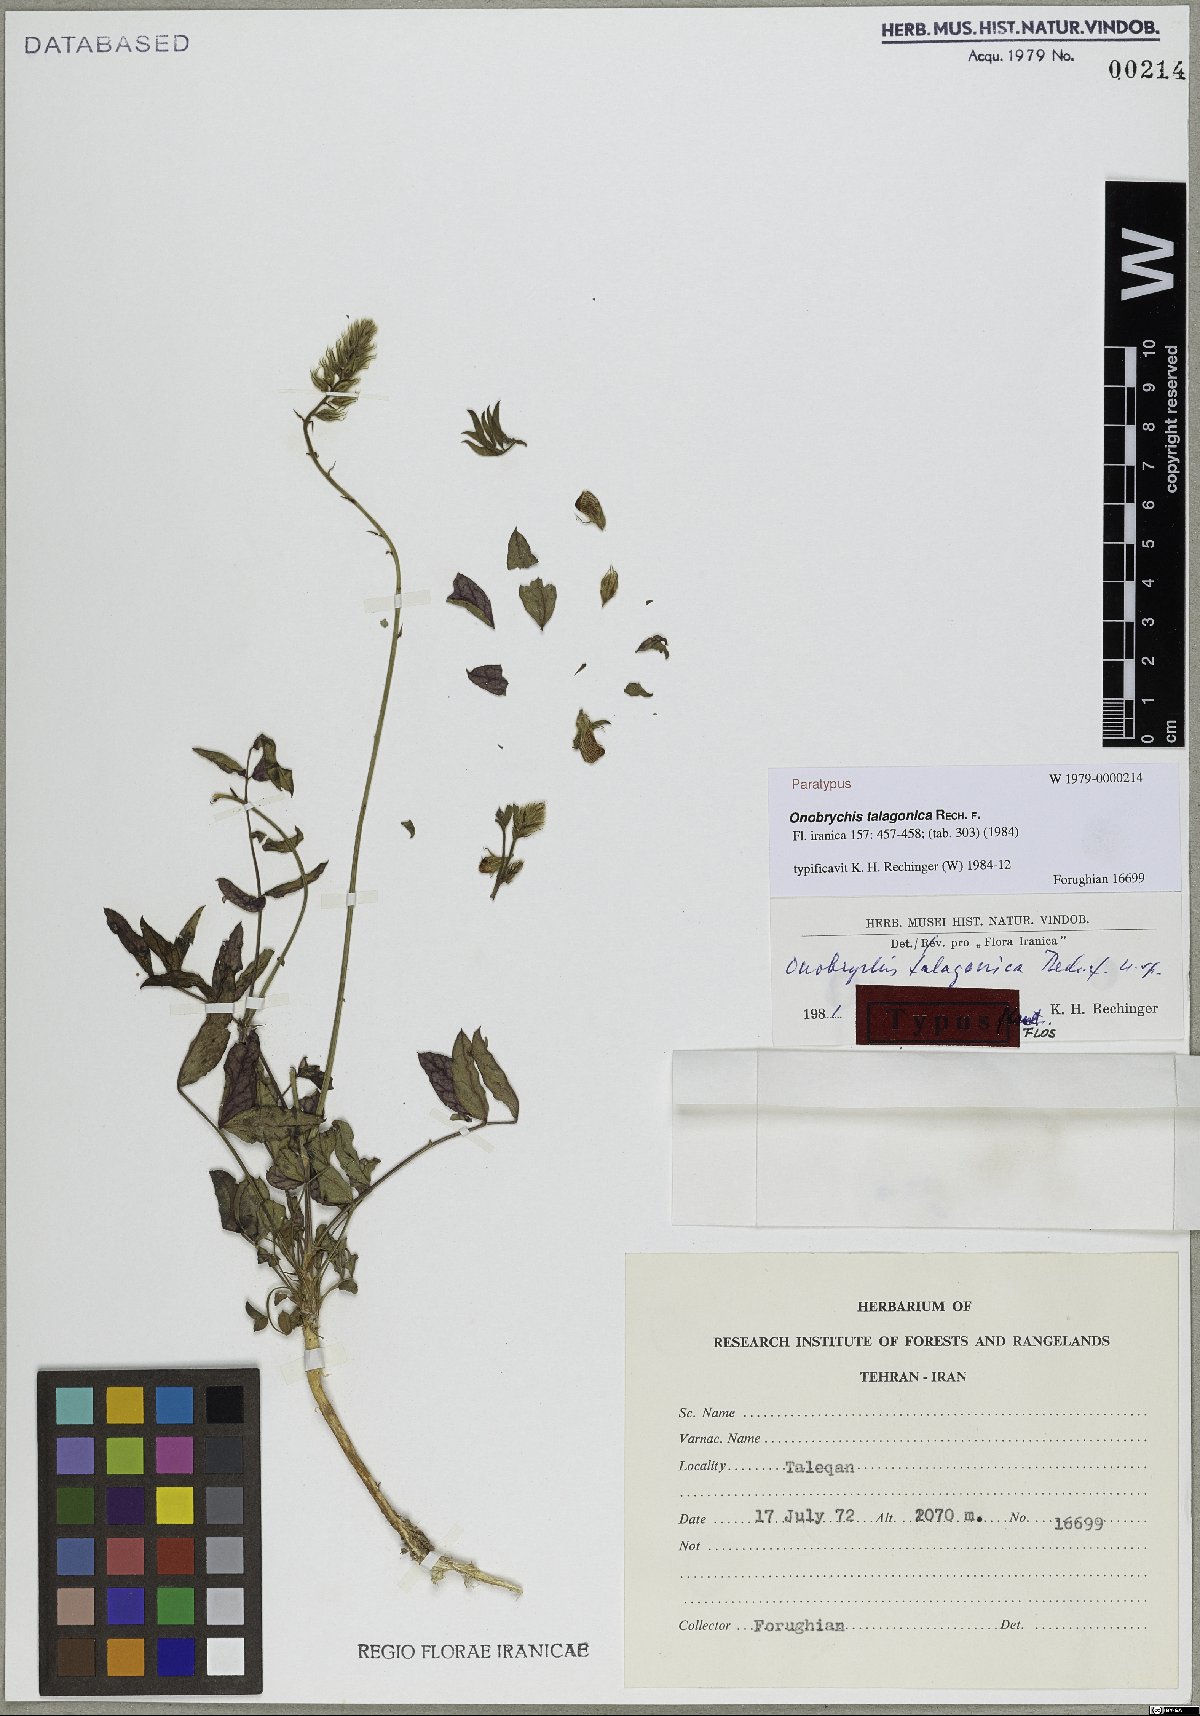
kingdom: Plantae
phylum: Tracheophyta
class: Magnoliopsida
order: Fabales
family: Fabaceae
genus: Onobrychis
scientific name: Onobrychis talagonica
